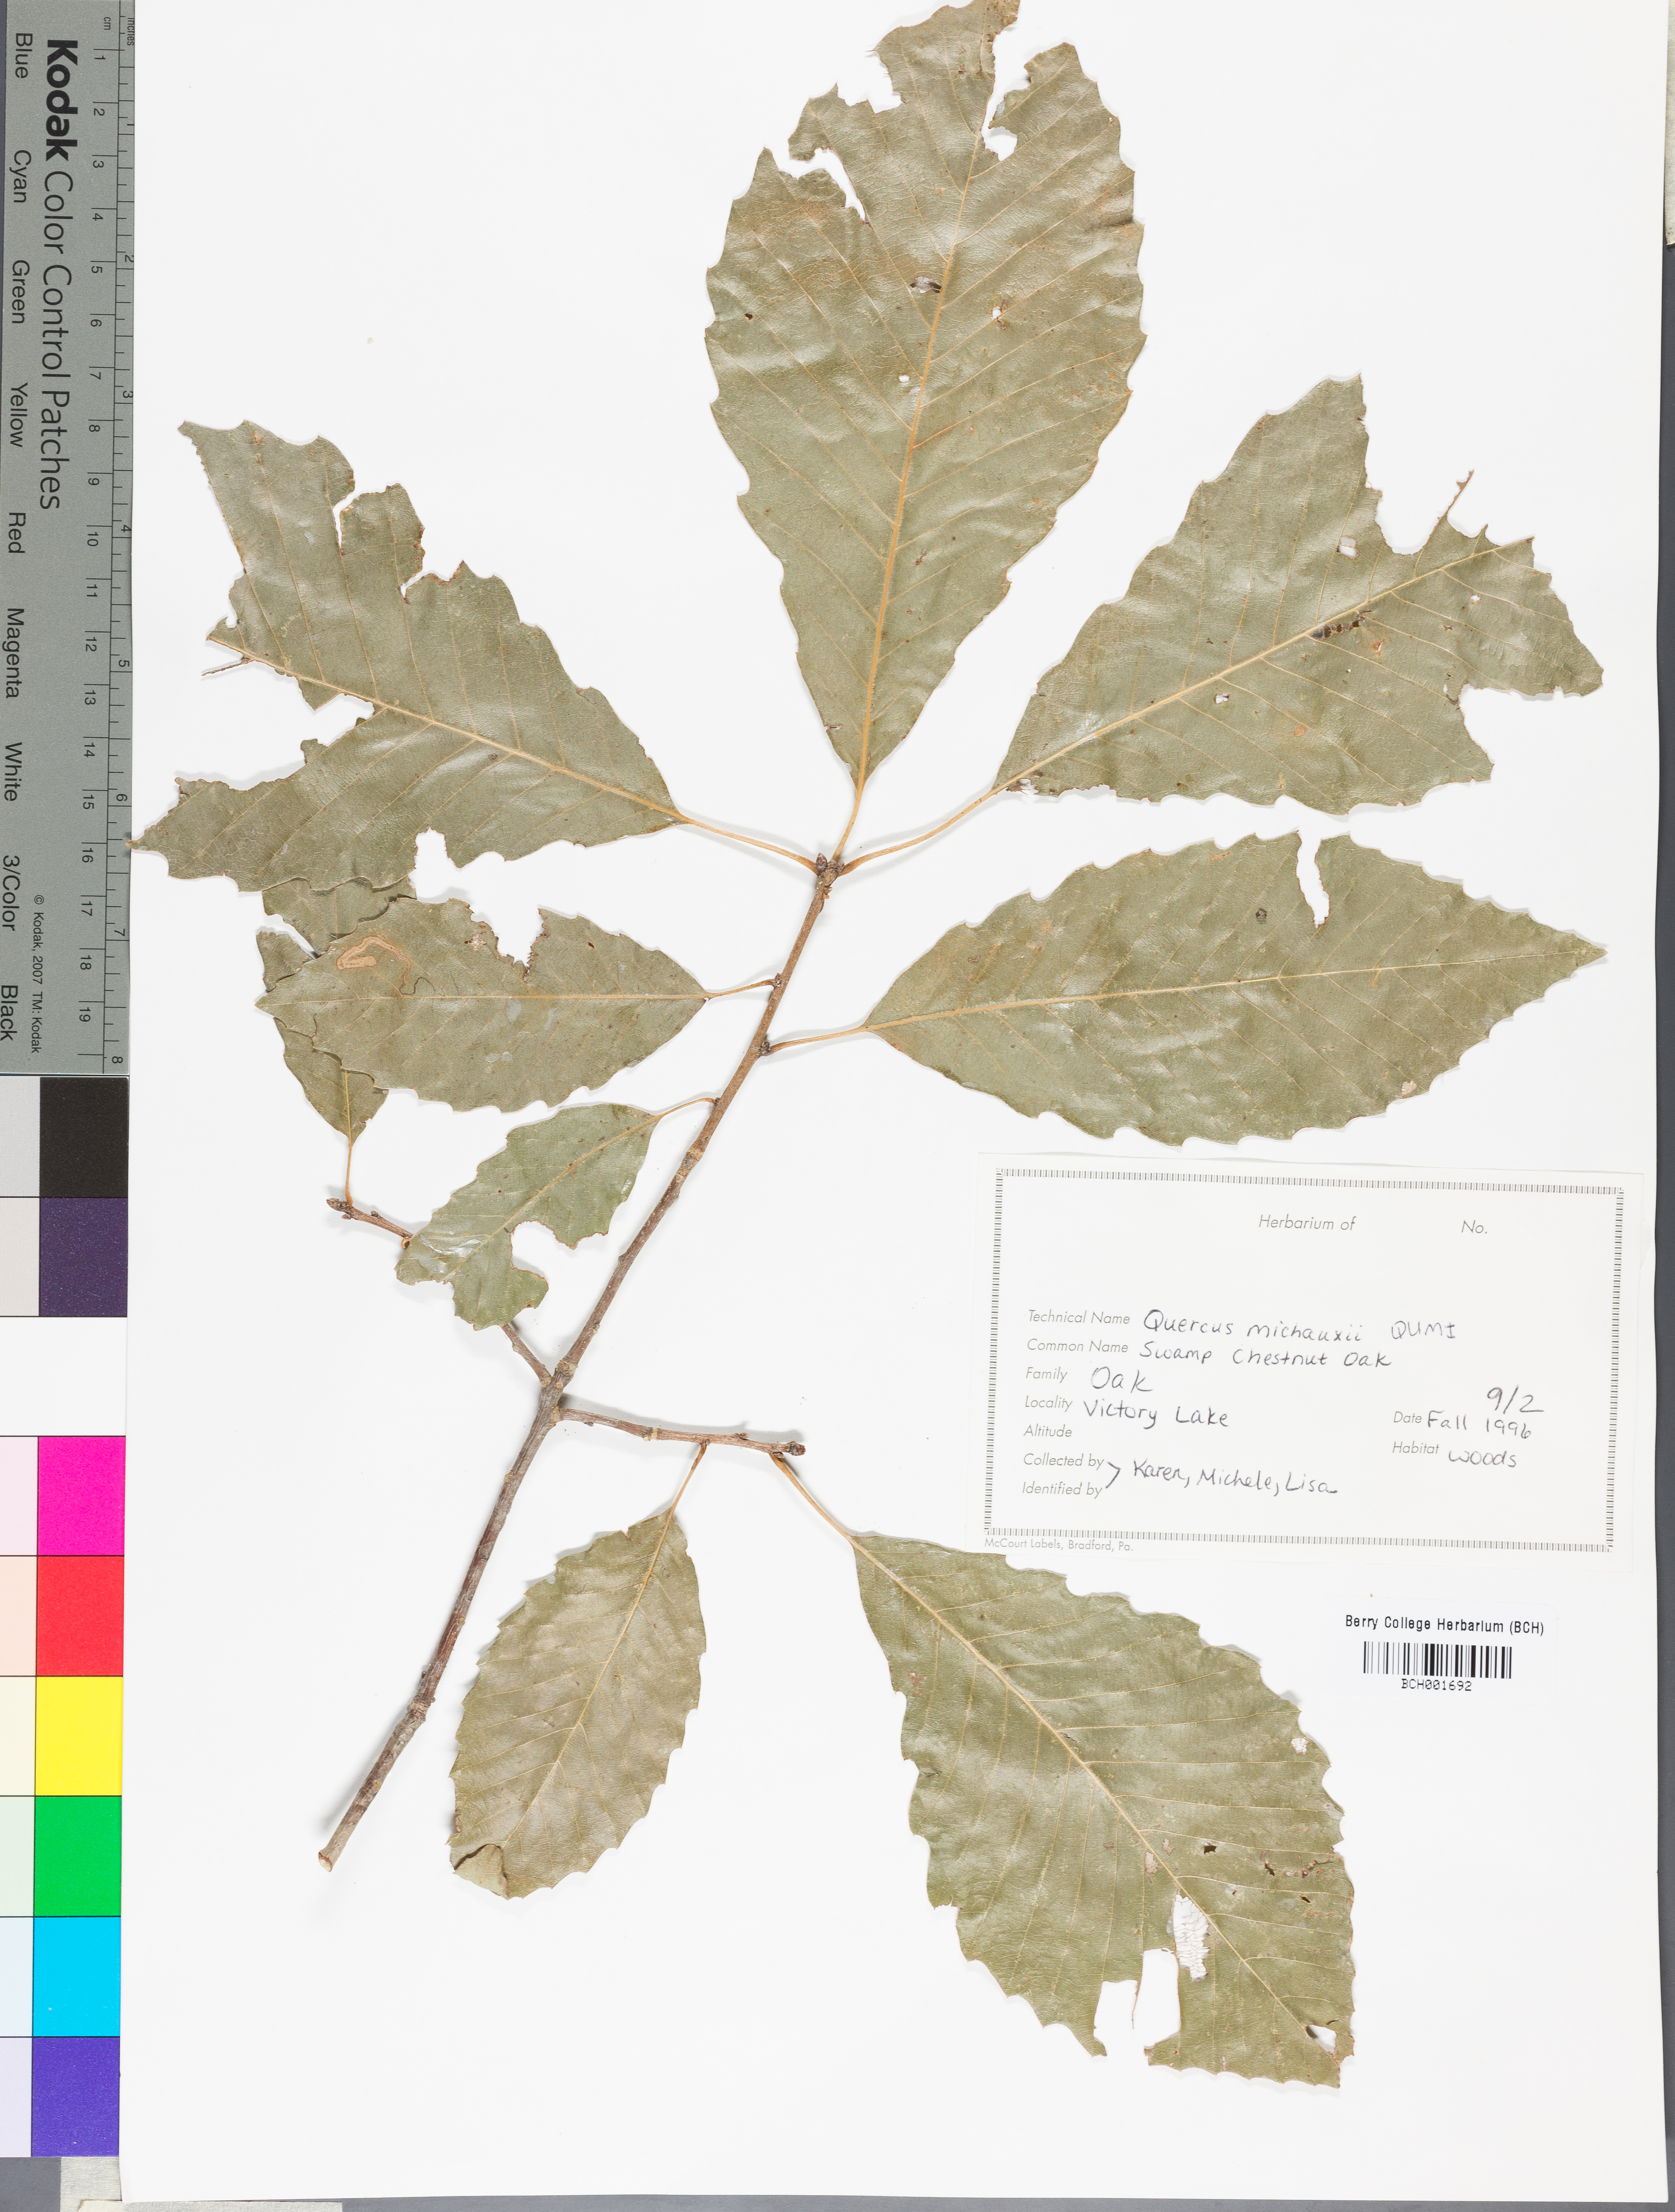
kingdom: Plantae
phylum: Tracheophyta
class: Magnoliopsida
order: Fagales
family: Fagaceae
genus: Quercus
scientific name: Quercus michauxii
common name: Swamp chestnut oak
